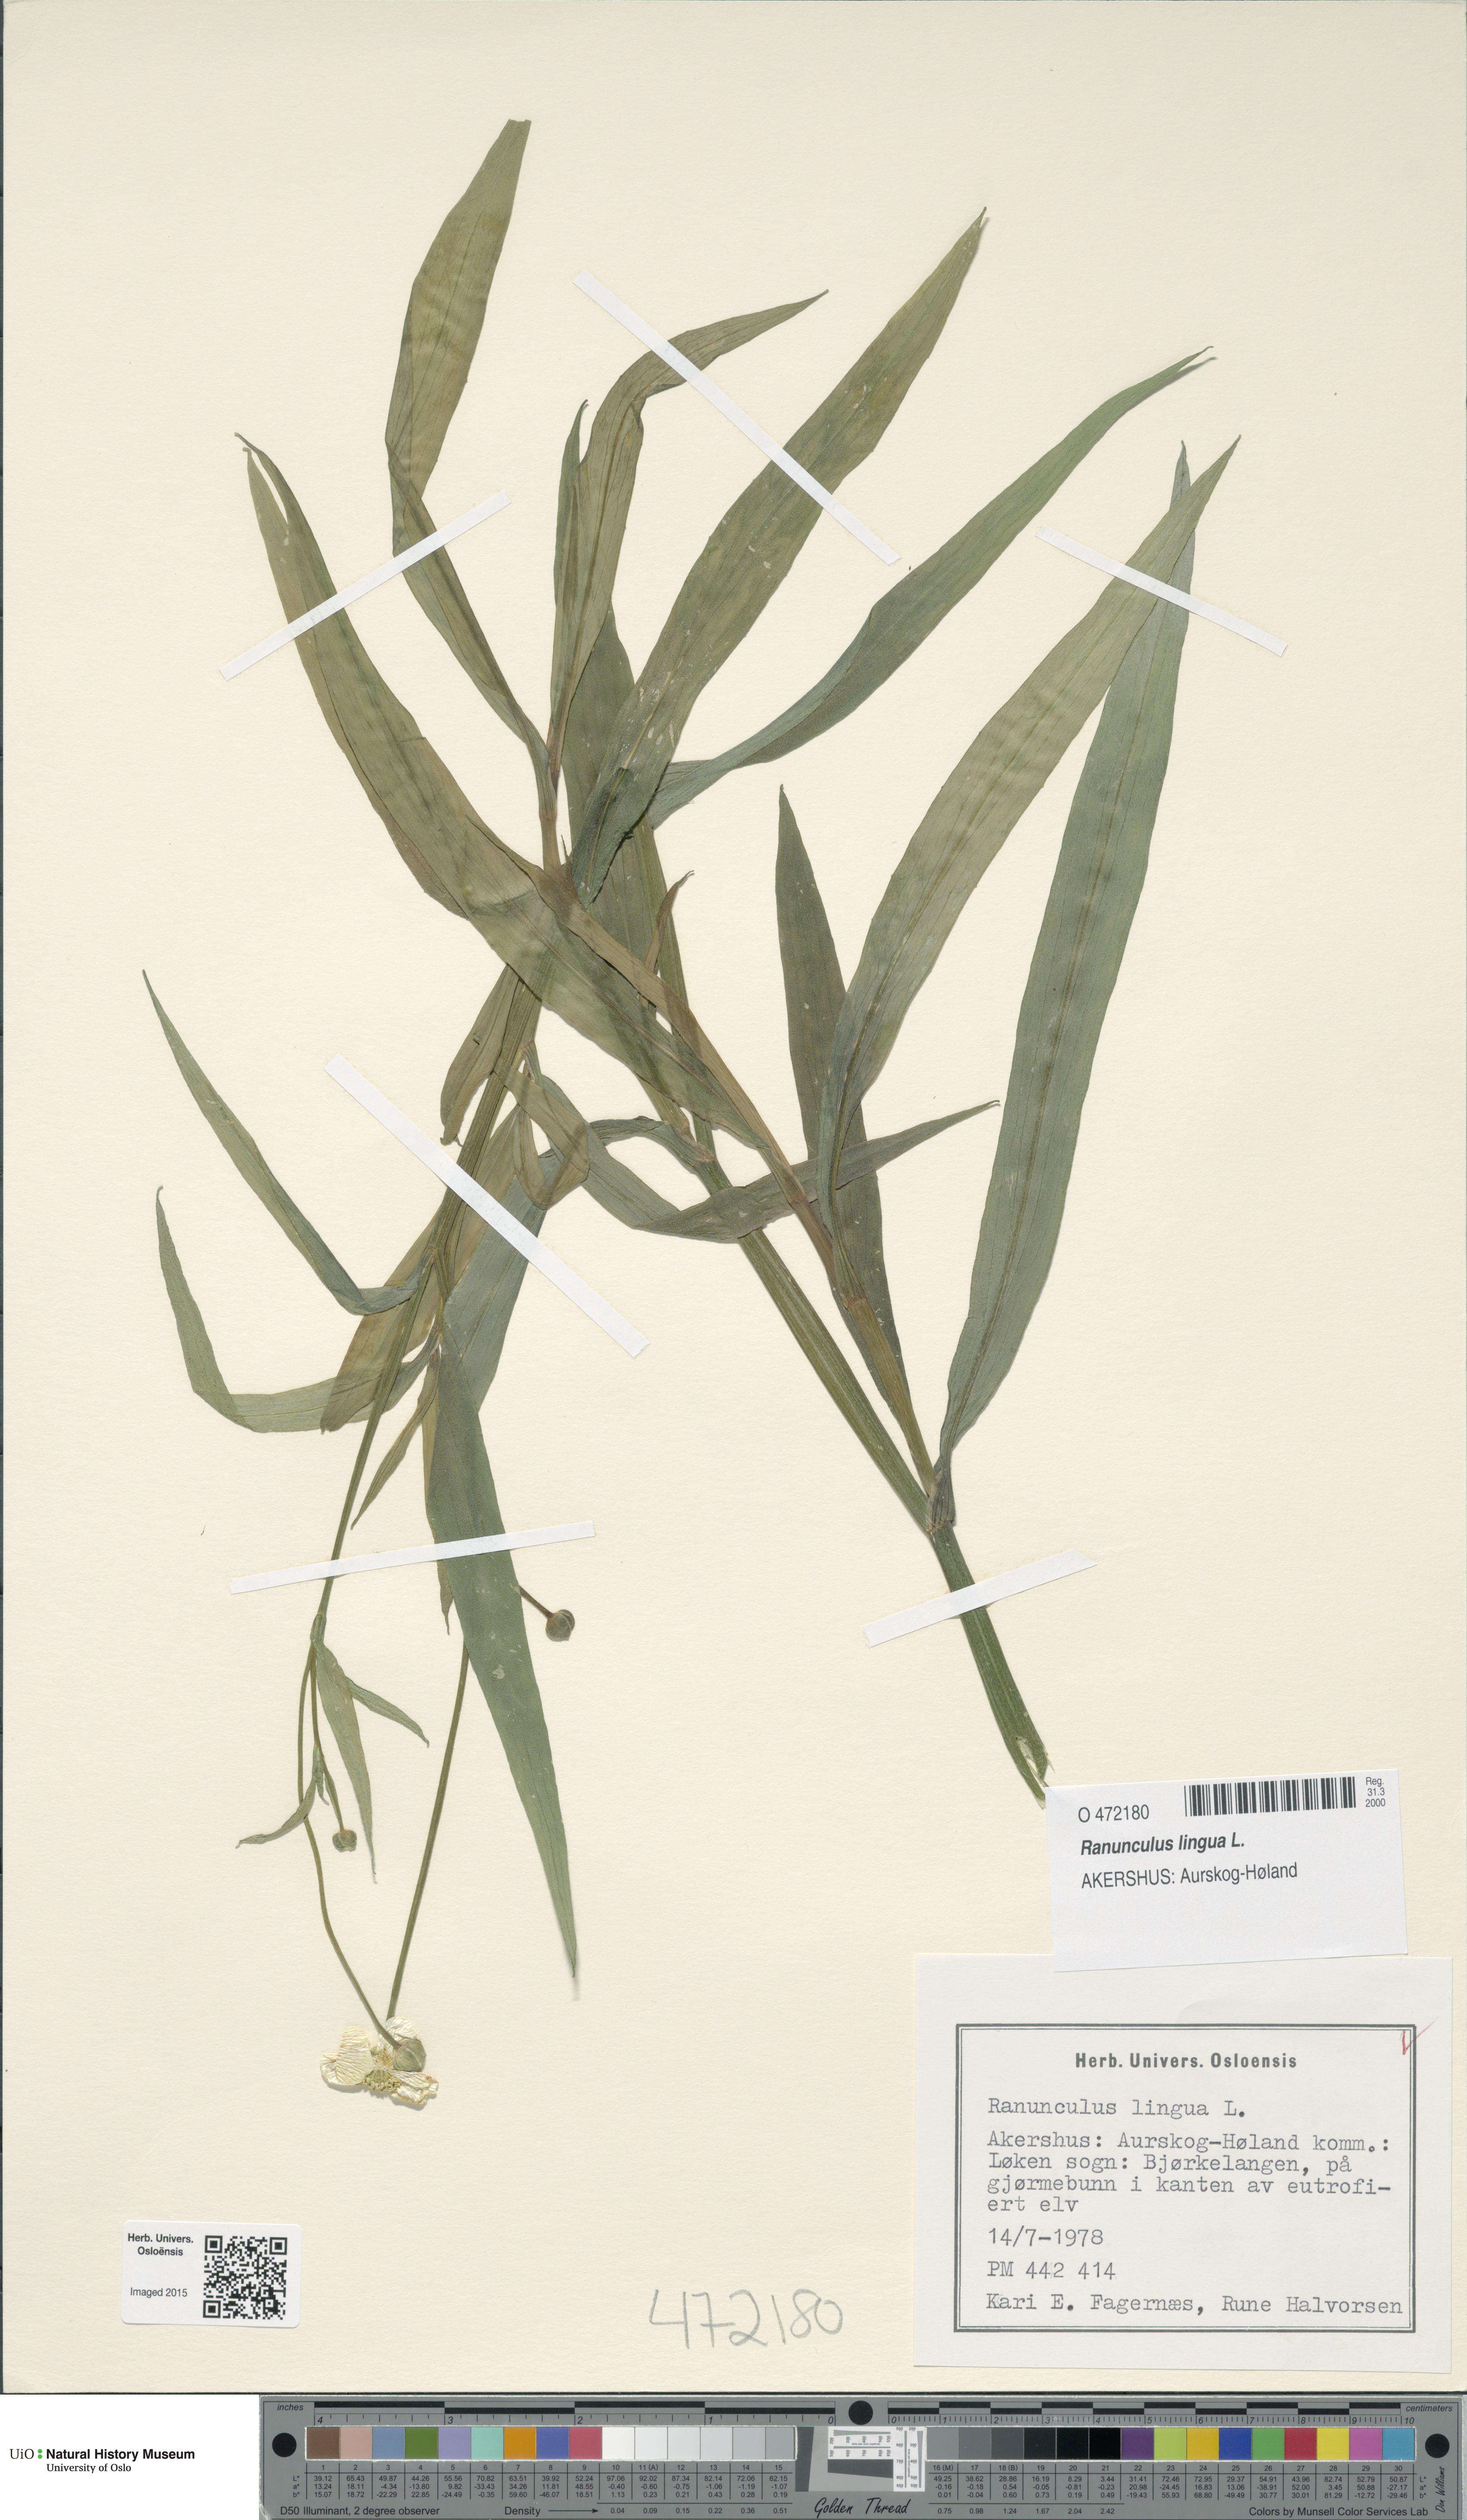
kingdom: Plantae
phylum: Tracheophyta
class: Magnoliopsida
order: Ranunculales
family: Ranunculaceae
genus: Ranunculus
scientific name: Ranunculus lingua
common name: Greater spearwort
